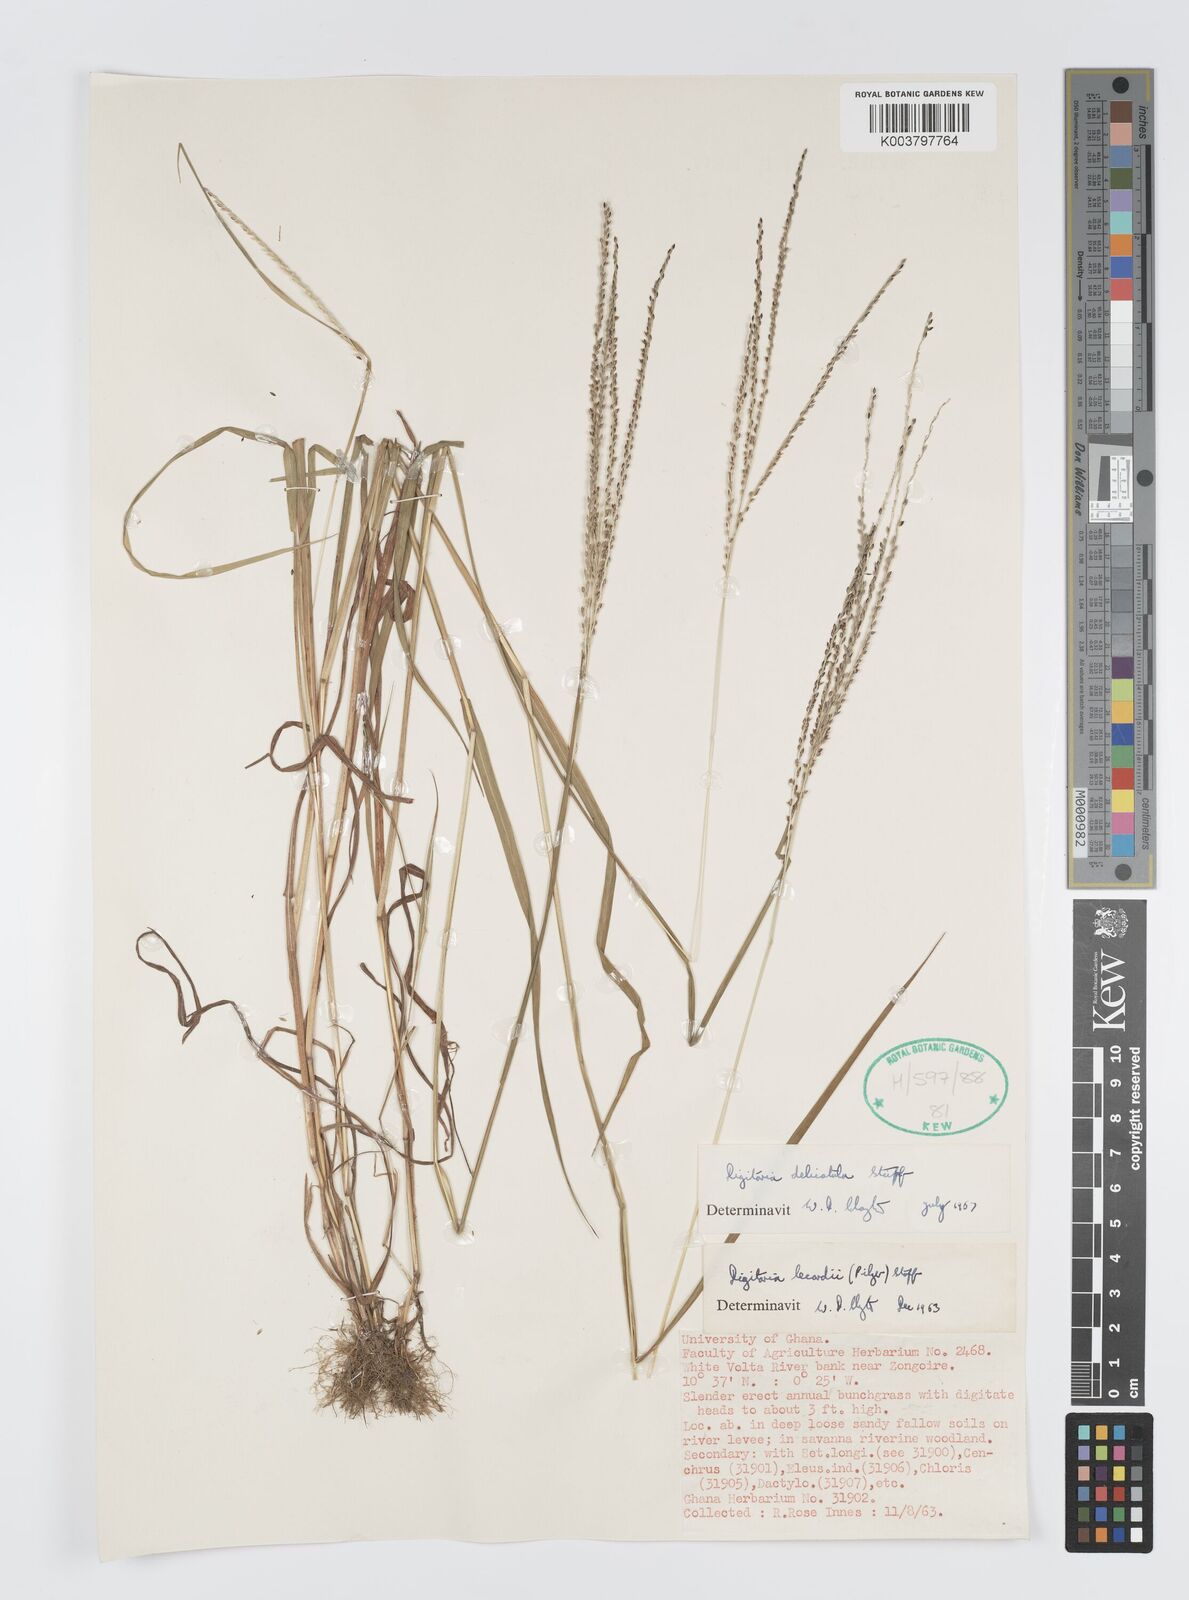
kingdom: Plantae
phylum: Tracheophyta
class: Liliopsida
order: Poales
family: Poaceae
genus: Digitaria
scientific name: Digitaria delicatula
